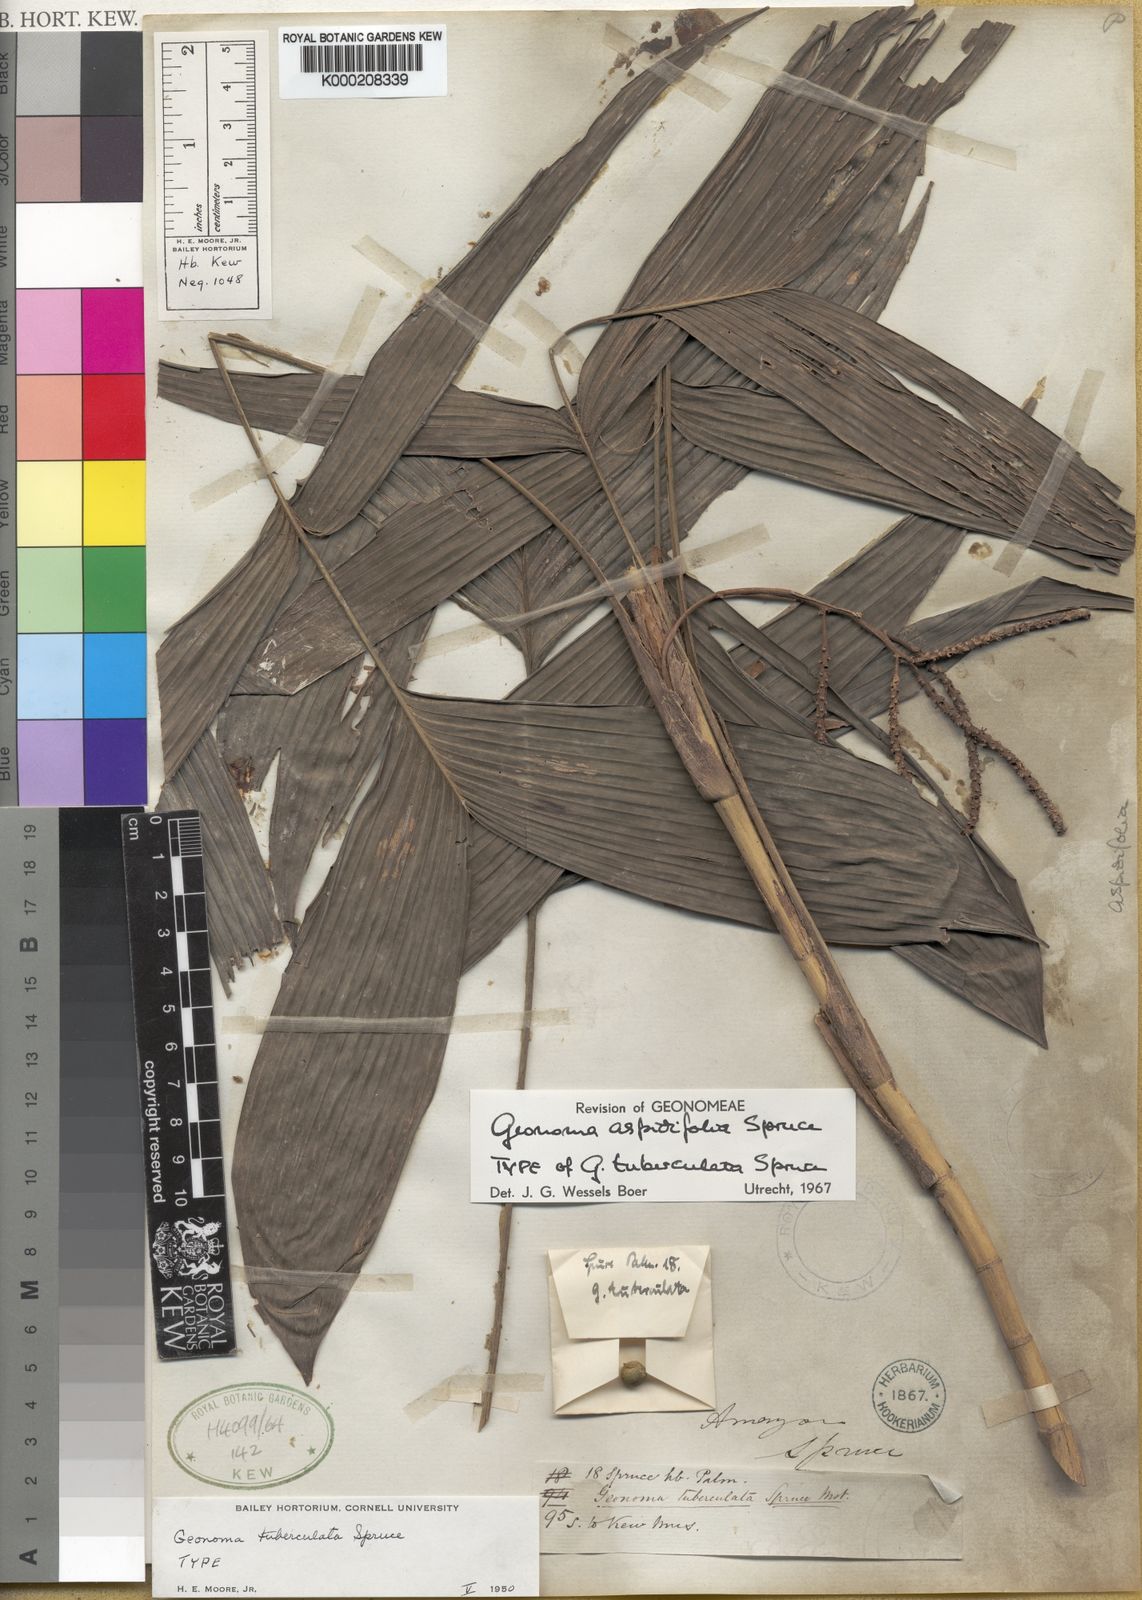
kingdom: Plantae
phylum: Tracheophyta
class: Liliopsida
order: Arecales
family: Arecaceae
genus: Geonoma
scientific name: Geonoma aspidiifolia
